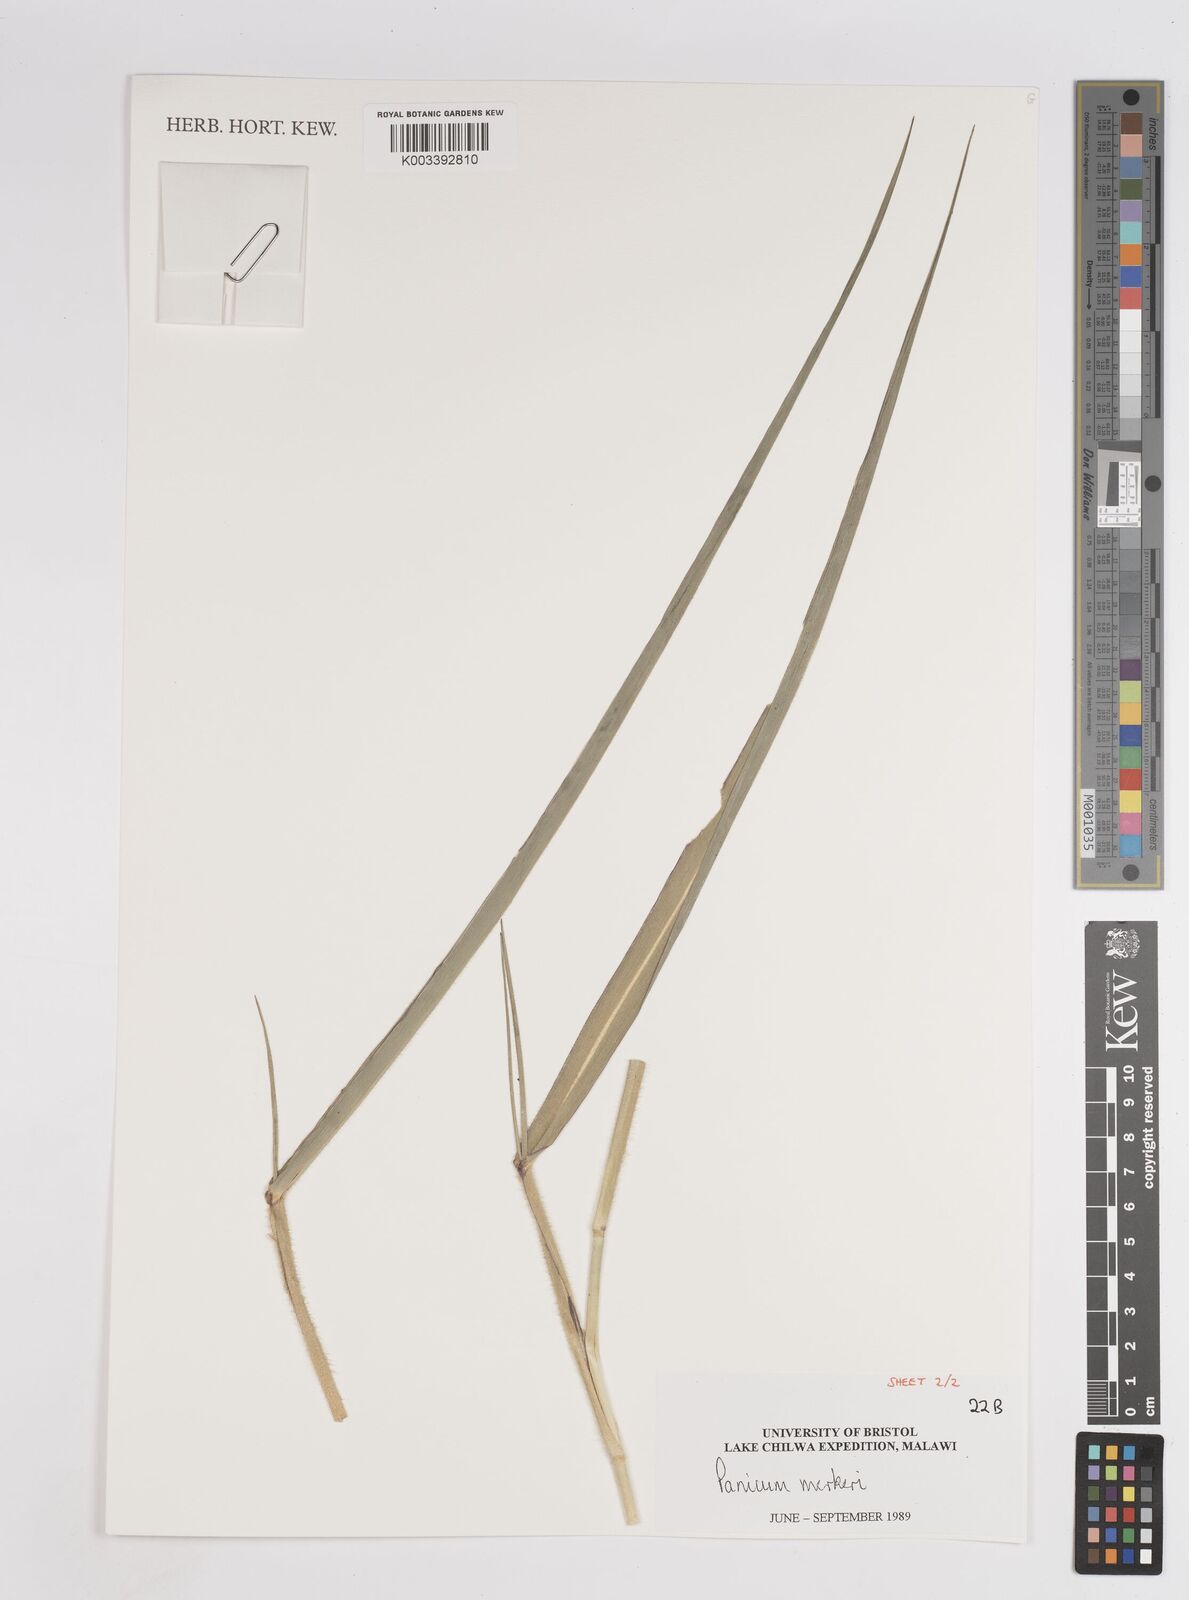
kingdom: Plantae
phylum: Tracheophyta
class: Liliopsida
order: Poales
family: Poaceae
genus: Panicum
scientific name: Panicum merkeri
